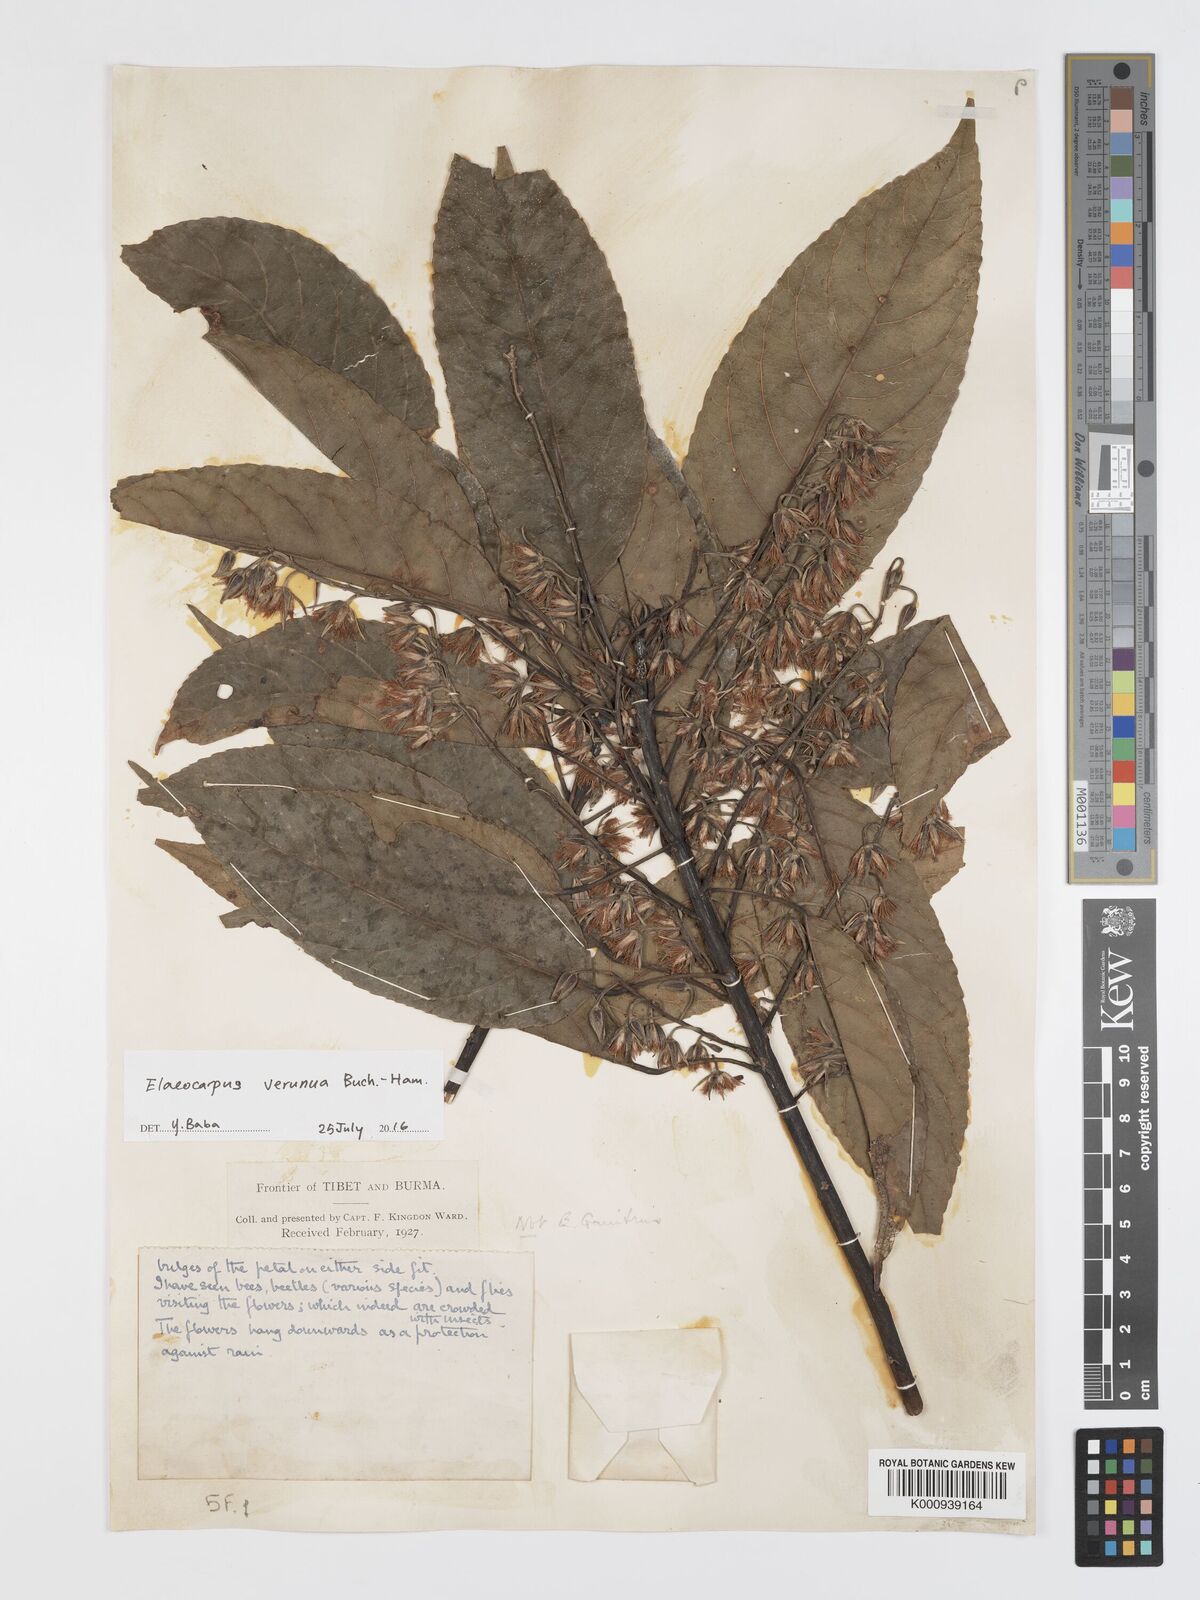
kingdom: Plantae
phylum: Tracheophyta
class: Magnoliopsida
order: Oxalidales
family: Elaeocarpaceae
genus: Elaeocarpus
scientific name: Elaeocarpus
